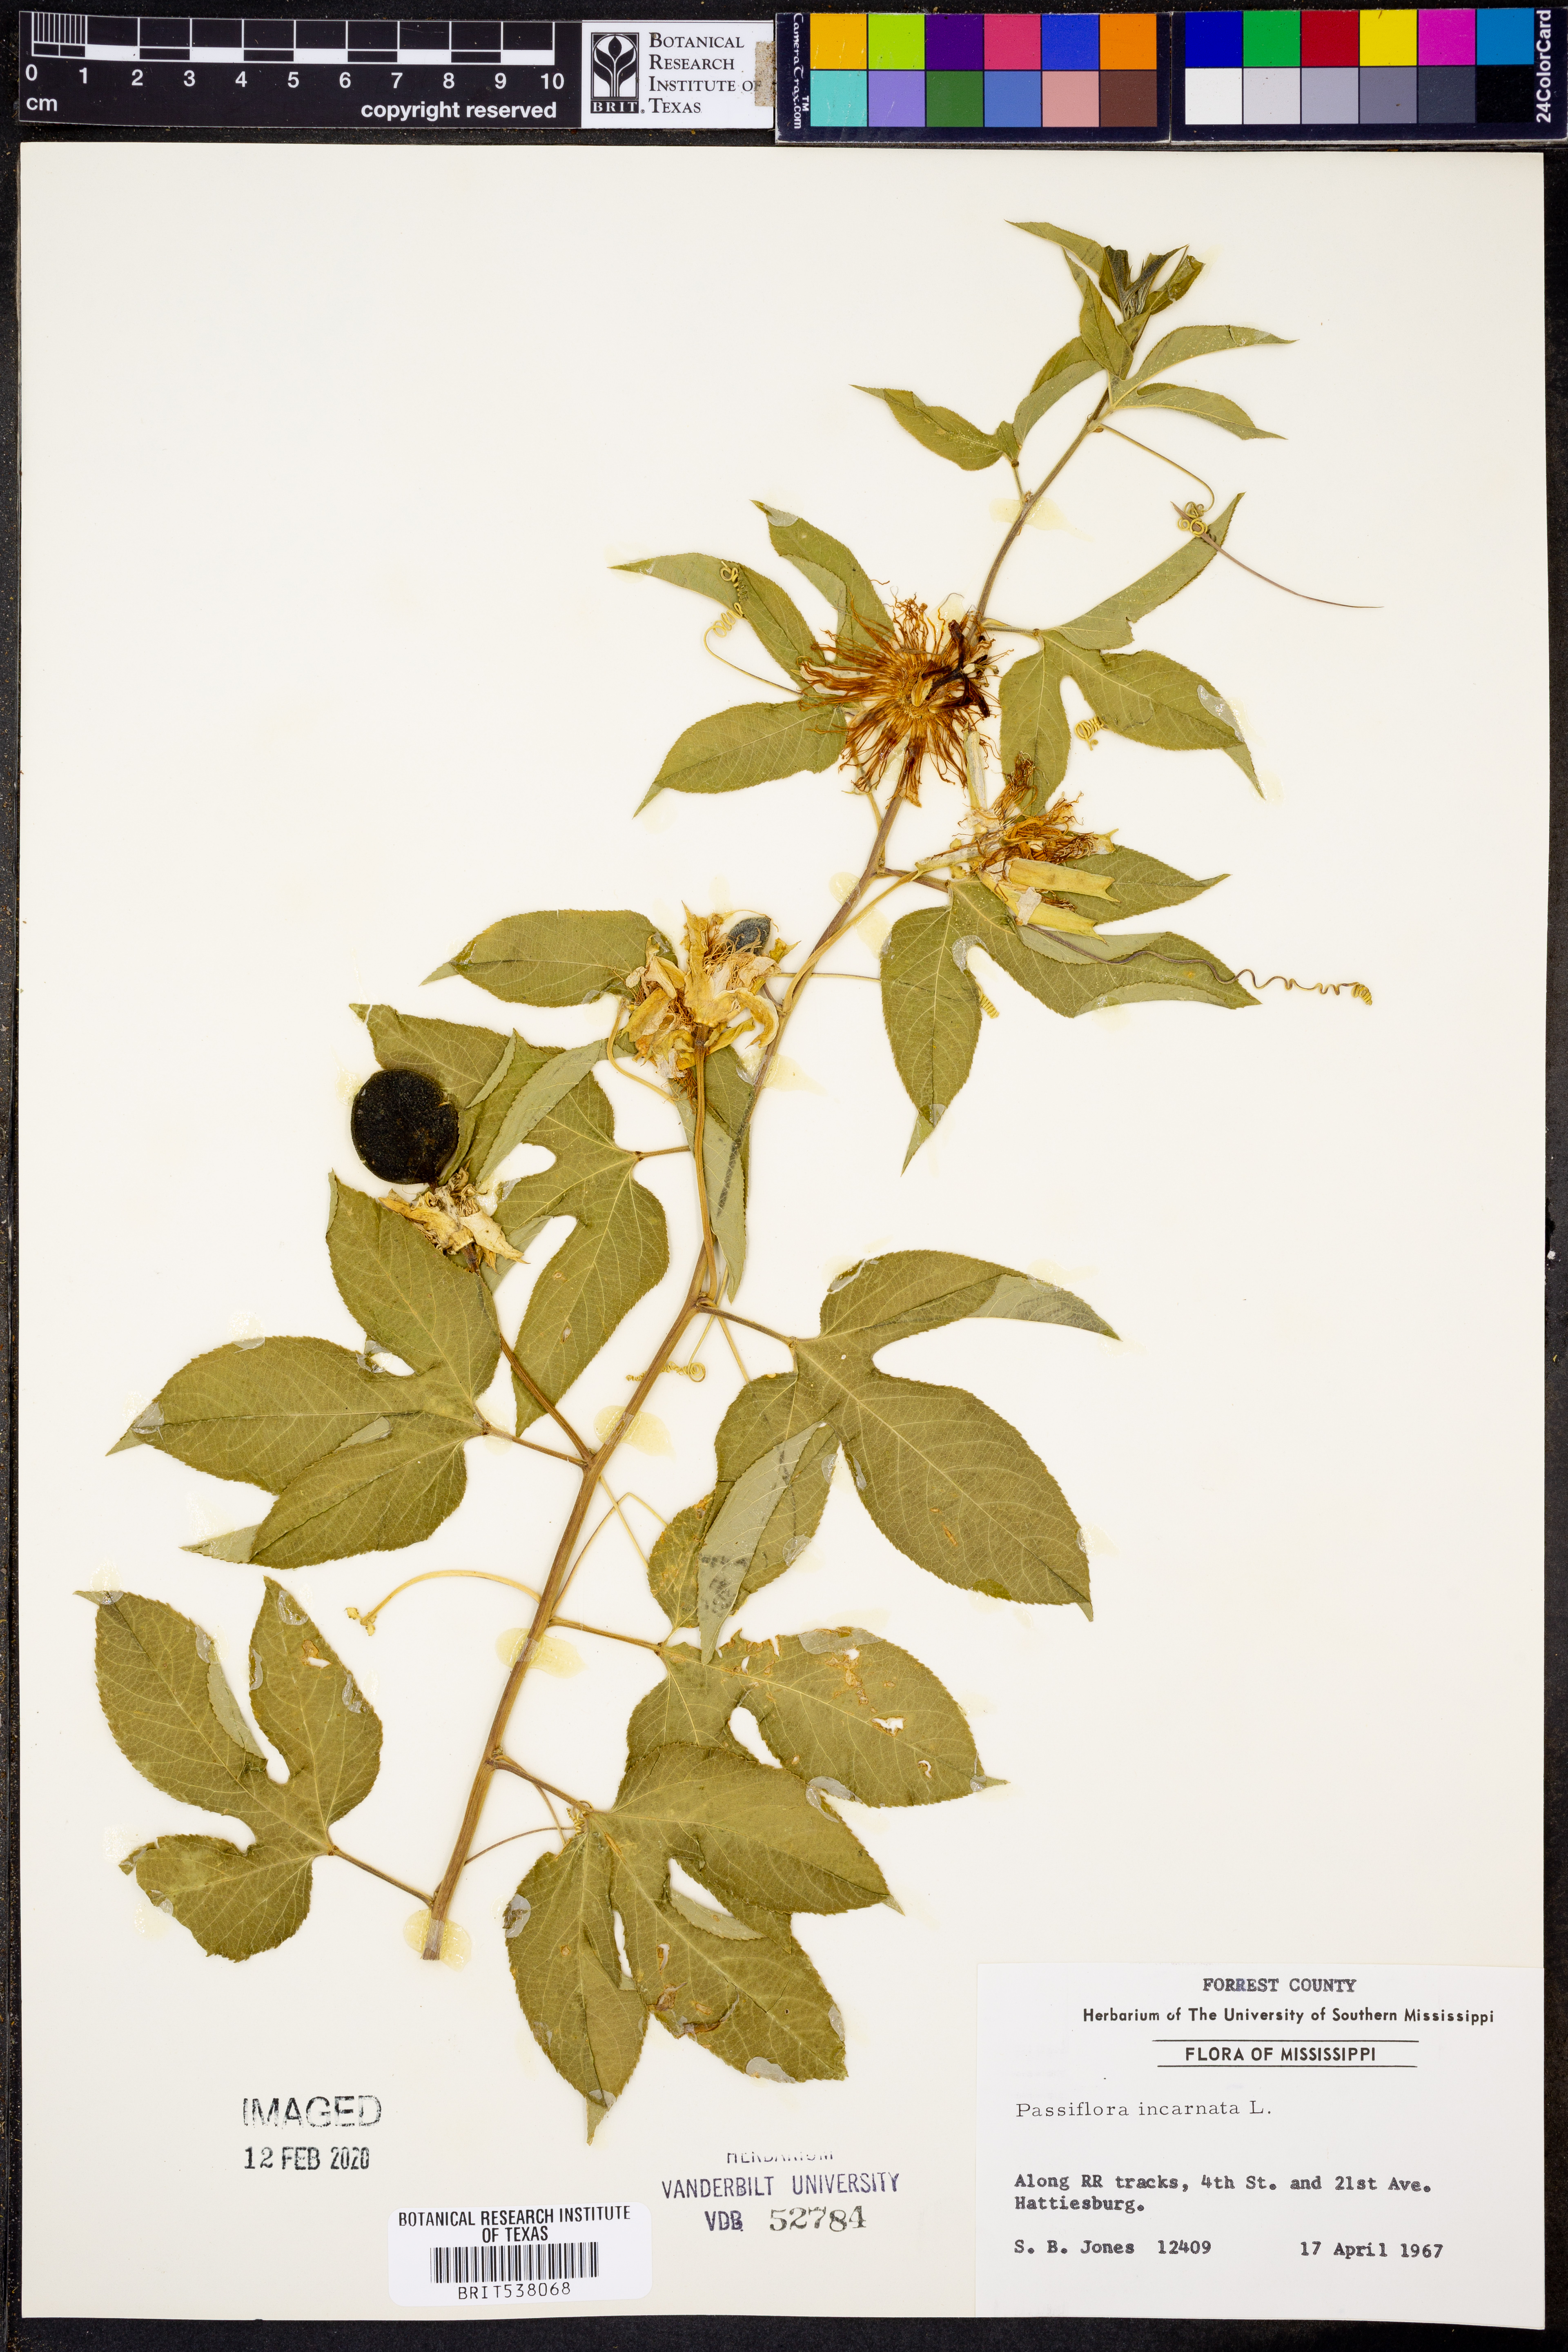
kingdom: Plantae
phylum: Tracheophyta
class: Magnoliopsida
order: Malpighiales
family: Passifloraceae
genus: Passiflora
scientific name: Passiflora incarnata
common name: Apricot-vine
